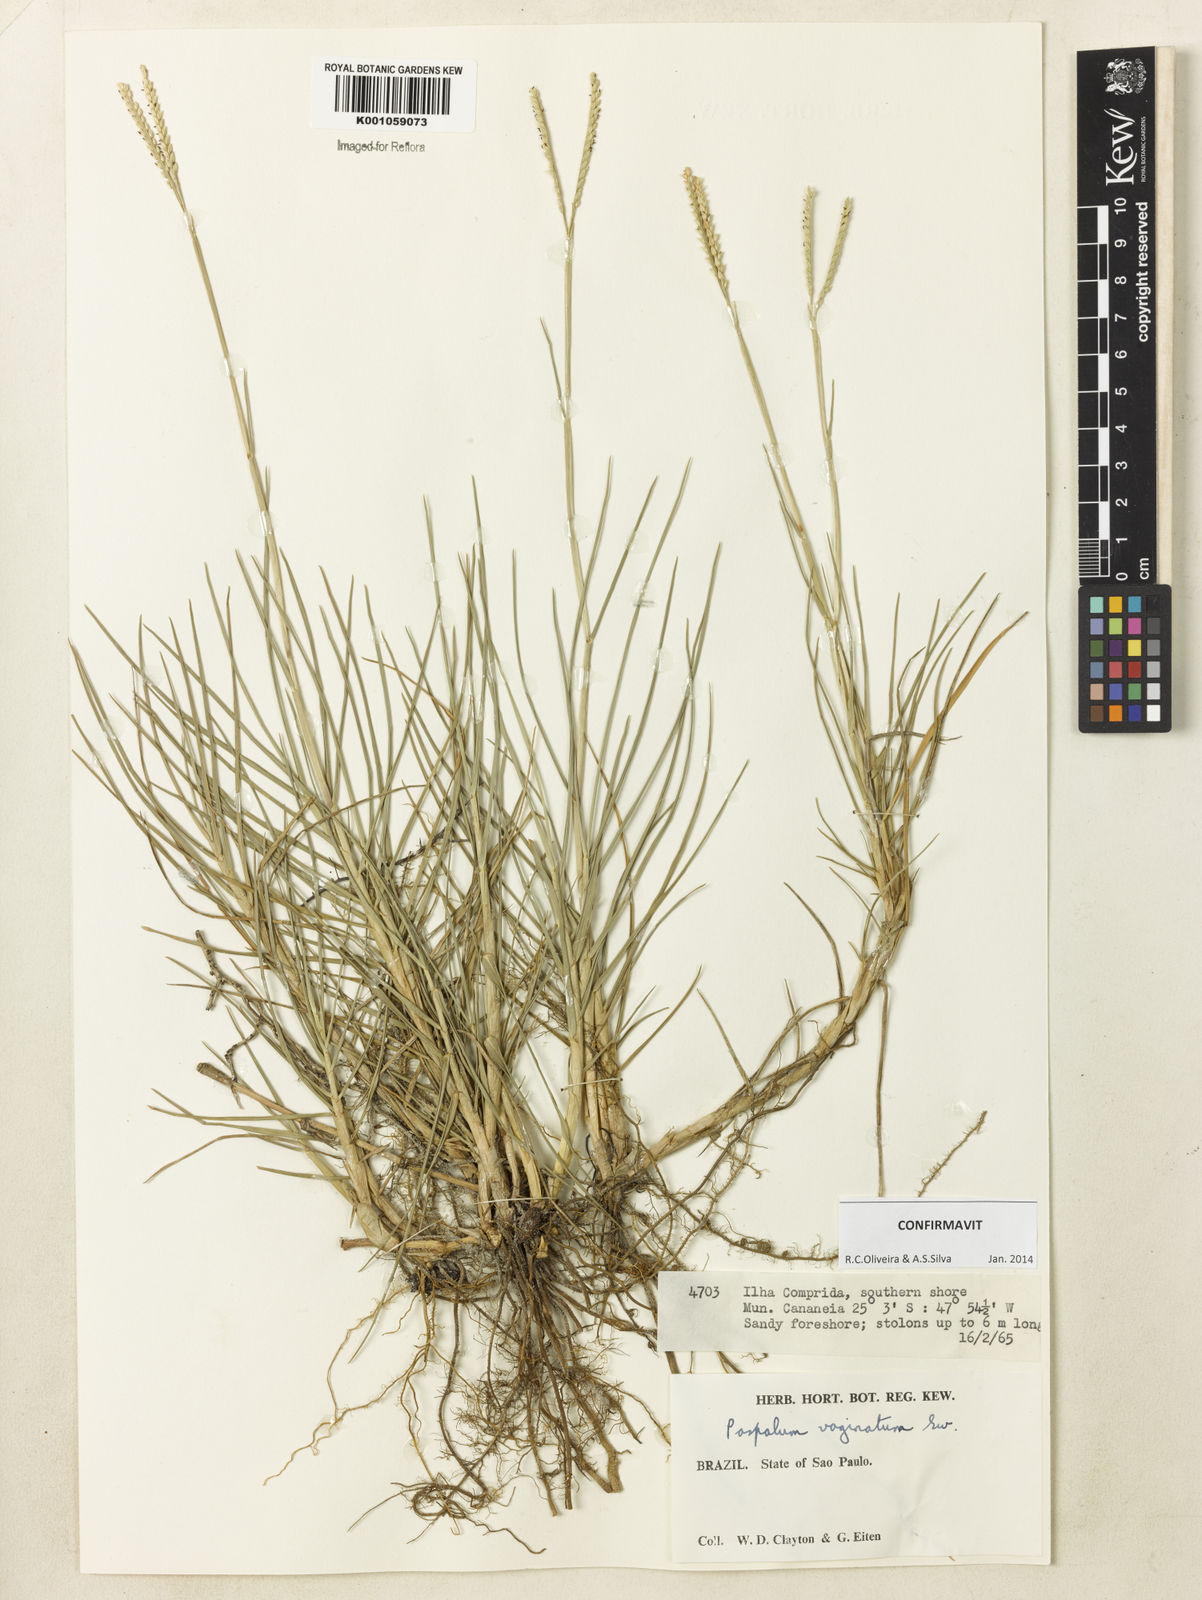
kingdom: Plantae
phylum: Tracheophyta
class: Liliopsida
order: Poales
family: Poaceae
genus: Paspalum
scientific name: Paspalum vaginatum
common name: Seashore paspalum
